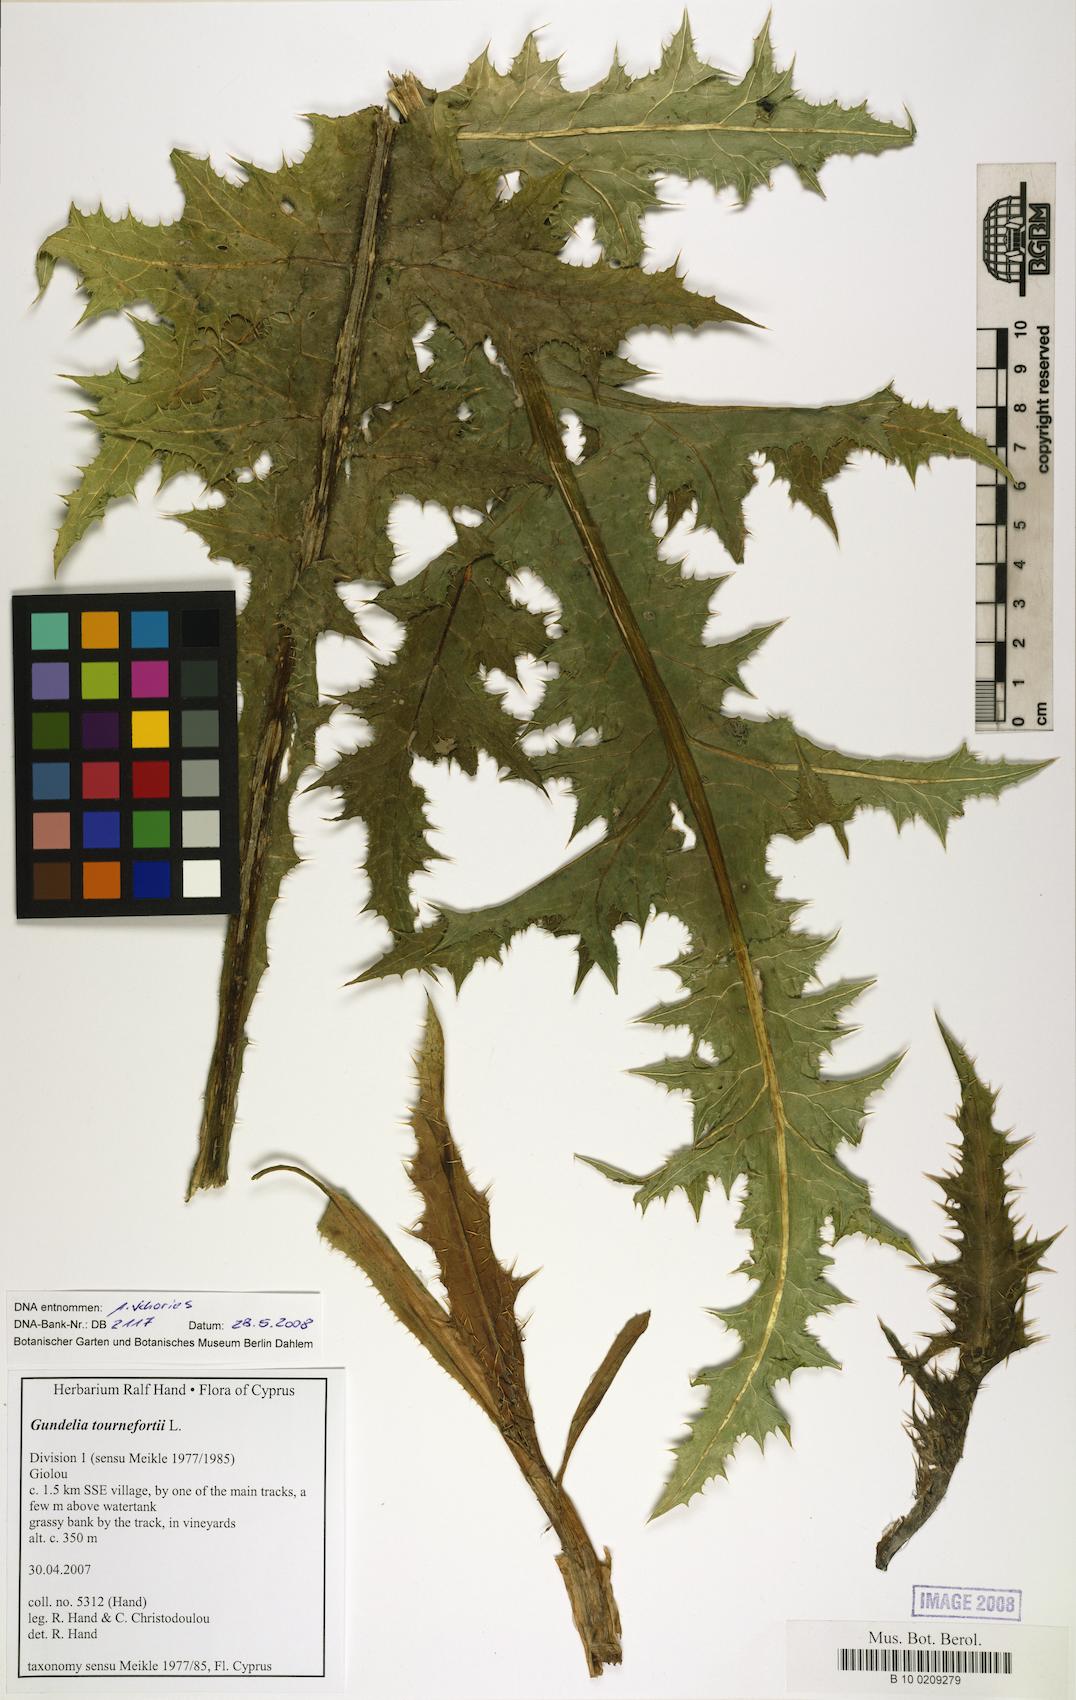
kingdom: Plantae
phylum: Tracheophyta
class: Magnoliopsida
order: Asterales
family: Asteraceae
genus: Gundelia
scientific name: Gundelia tournefortii
